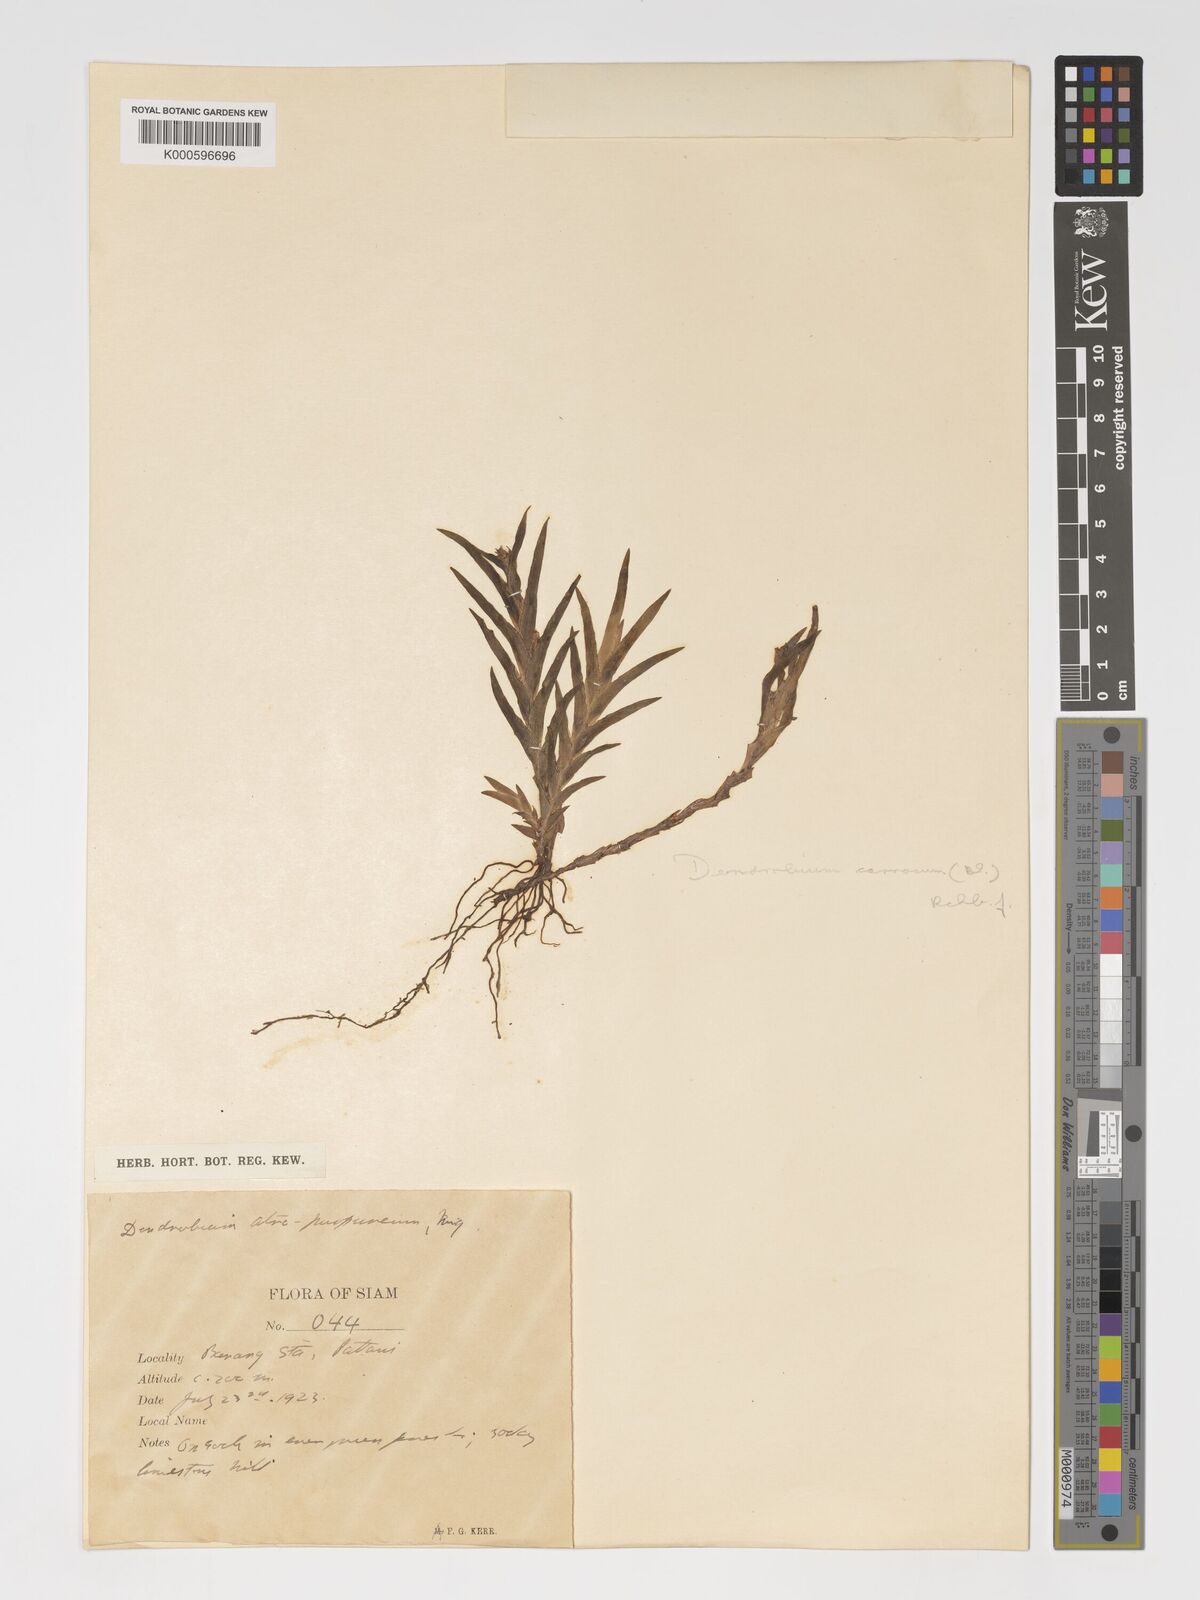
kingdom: Plantae
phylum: Tracheophyta
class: Liliopsida
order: Asparagales
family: Orchidaceae
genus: Oxystophyllum
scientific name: Oxystophyllum carnosum
